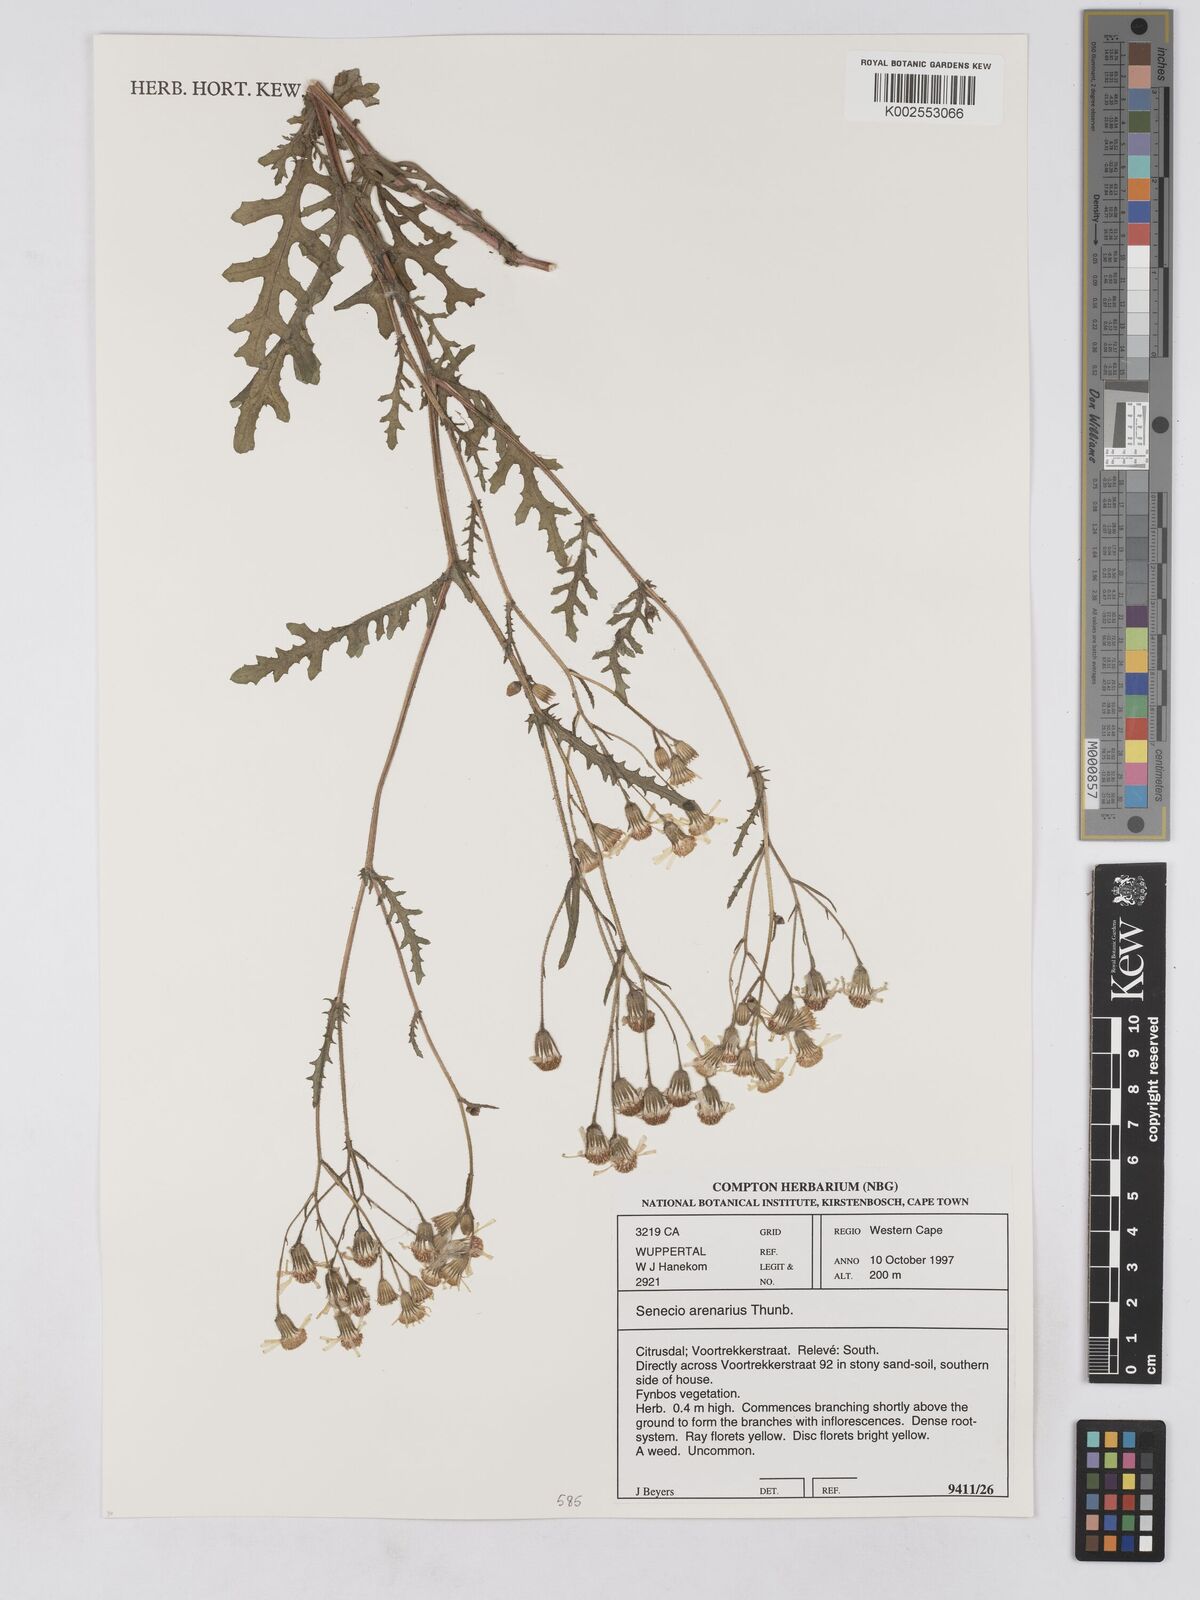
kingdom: Plantae
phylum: Tracheophyta
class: Magnoliopsida
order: Asterales
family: Asteraceae
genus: Senecio
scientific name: Senecio arenarius
